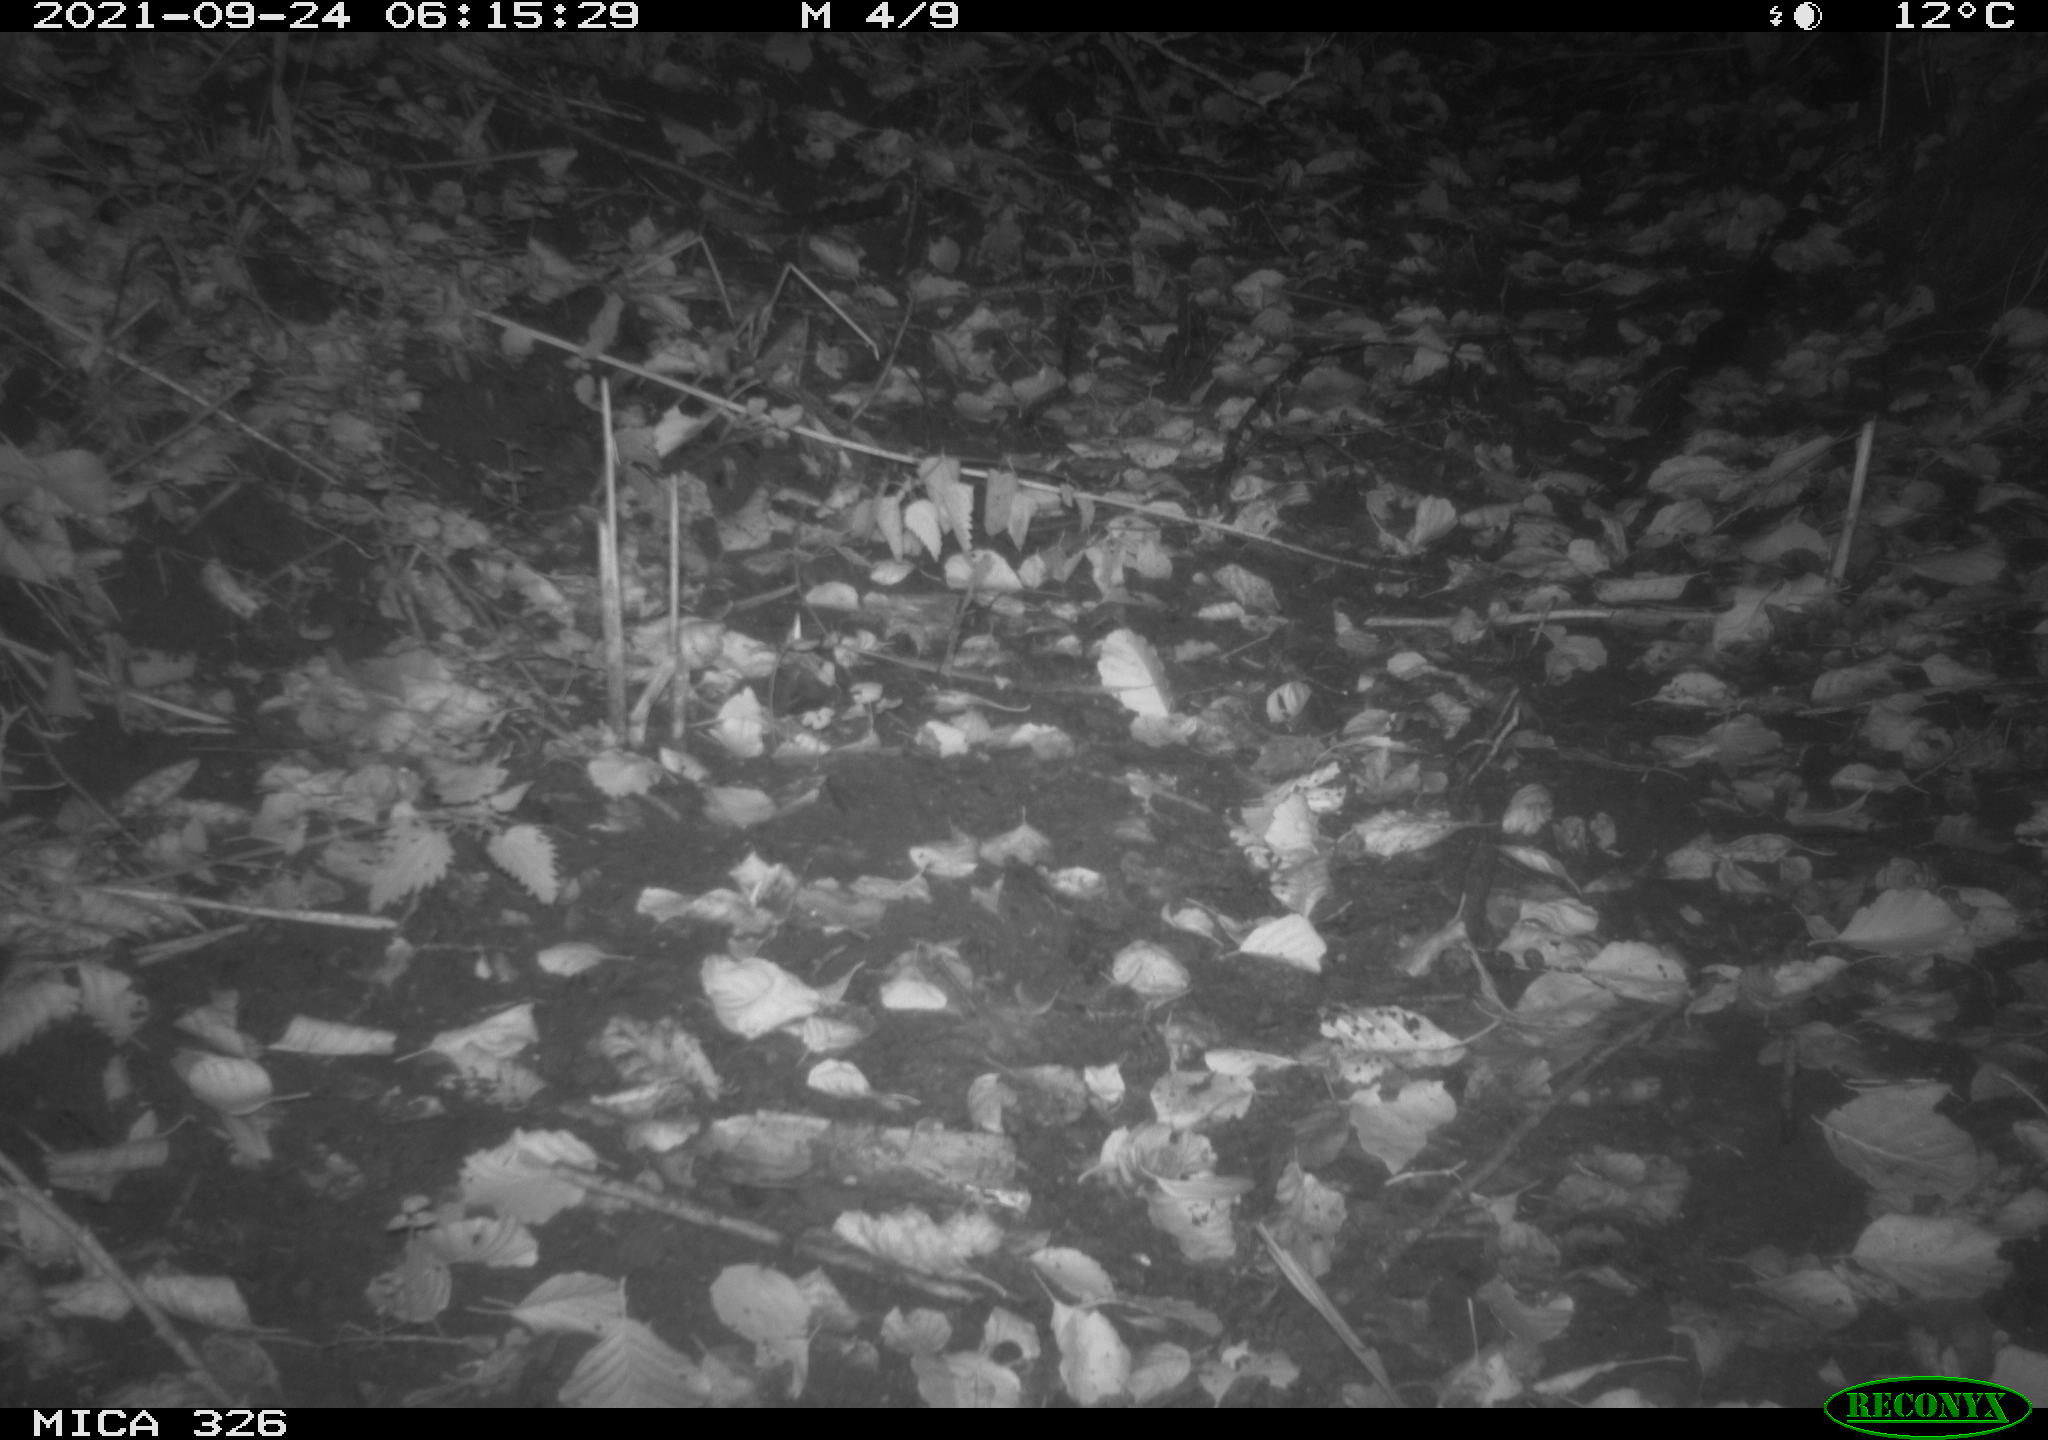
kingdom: Animalia
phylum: Chordata
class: Mammalia
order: Rodentia
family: Muridae
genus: Rattus
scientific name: Rattus norvegicus
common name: Brown rat
